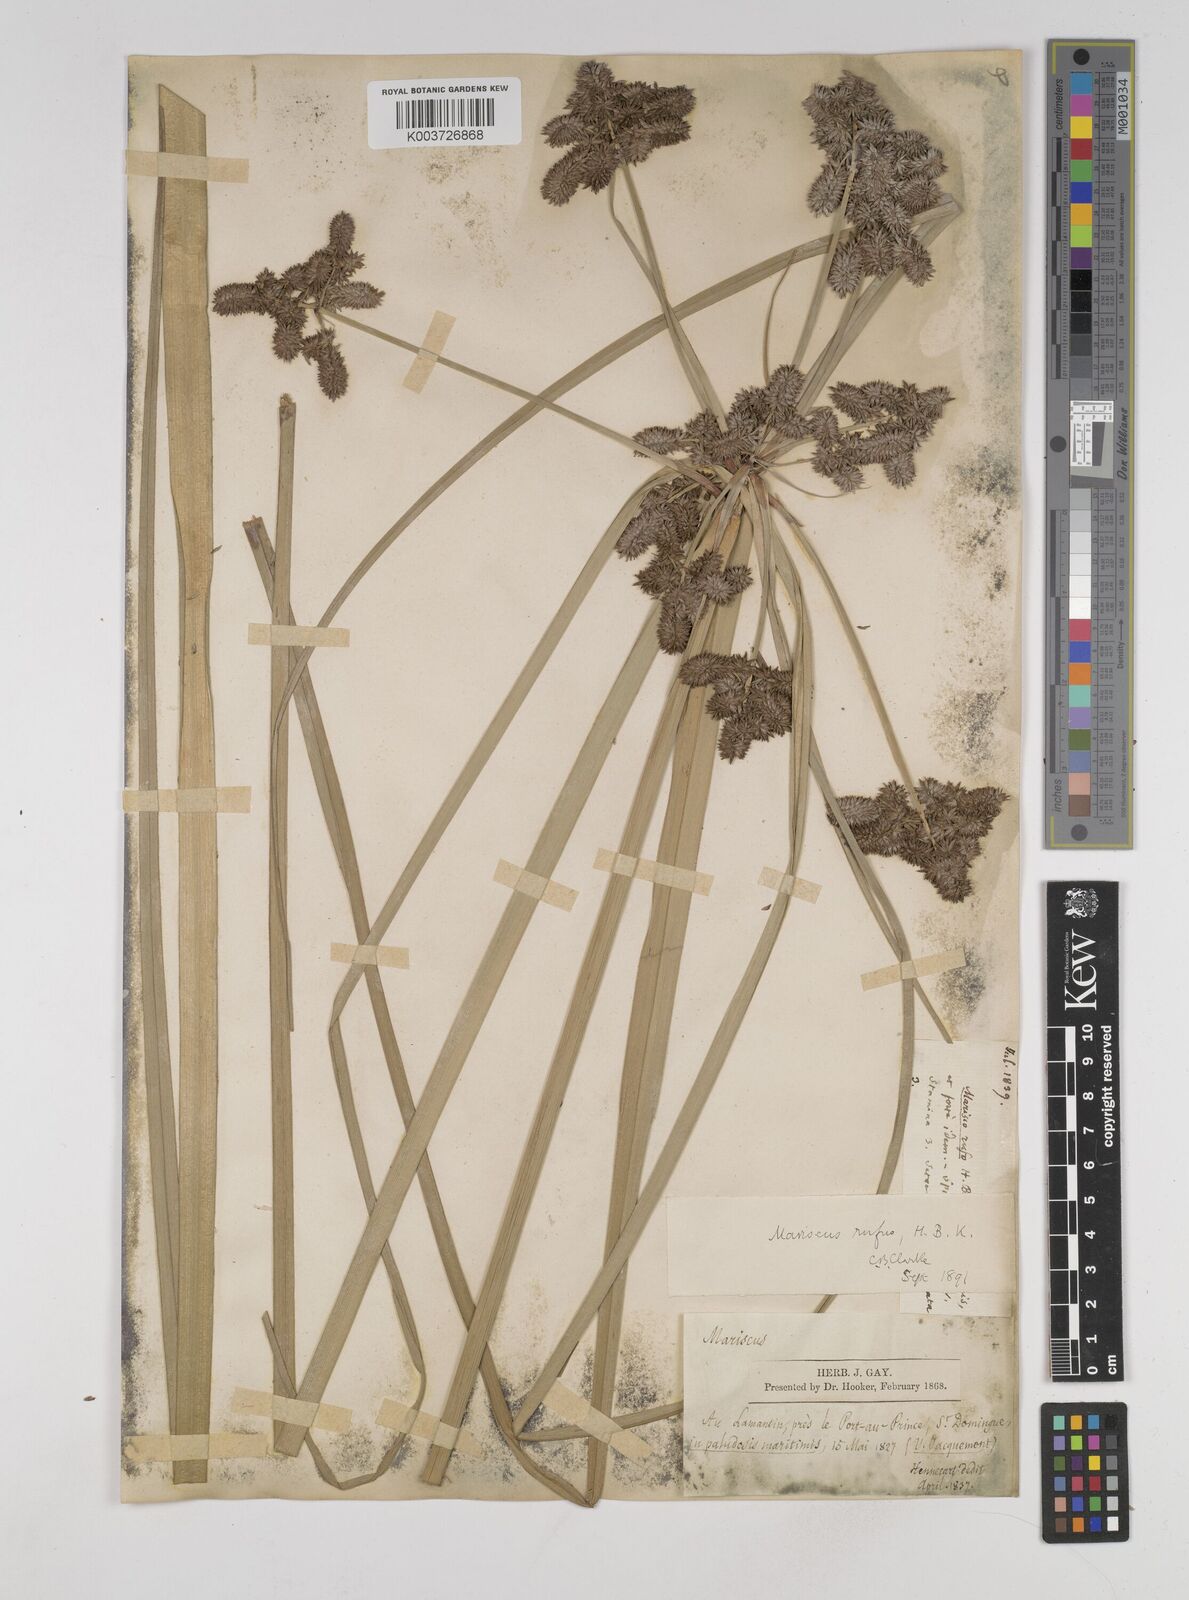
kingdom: Plantae
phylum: Tracheophyta
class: Liliopsida
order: Poales
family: Cyperaceae
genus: Cyperus
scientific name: Cyperus ligularis
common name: Swamp flat sedge
